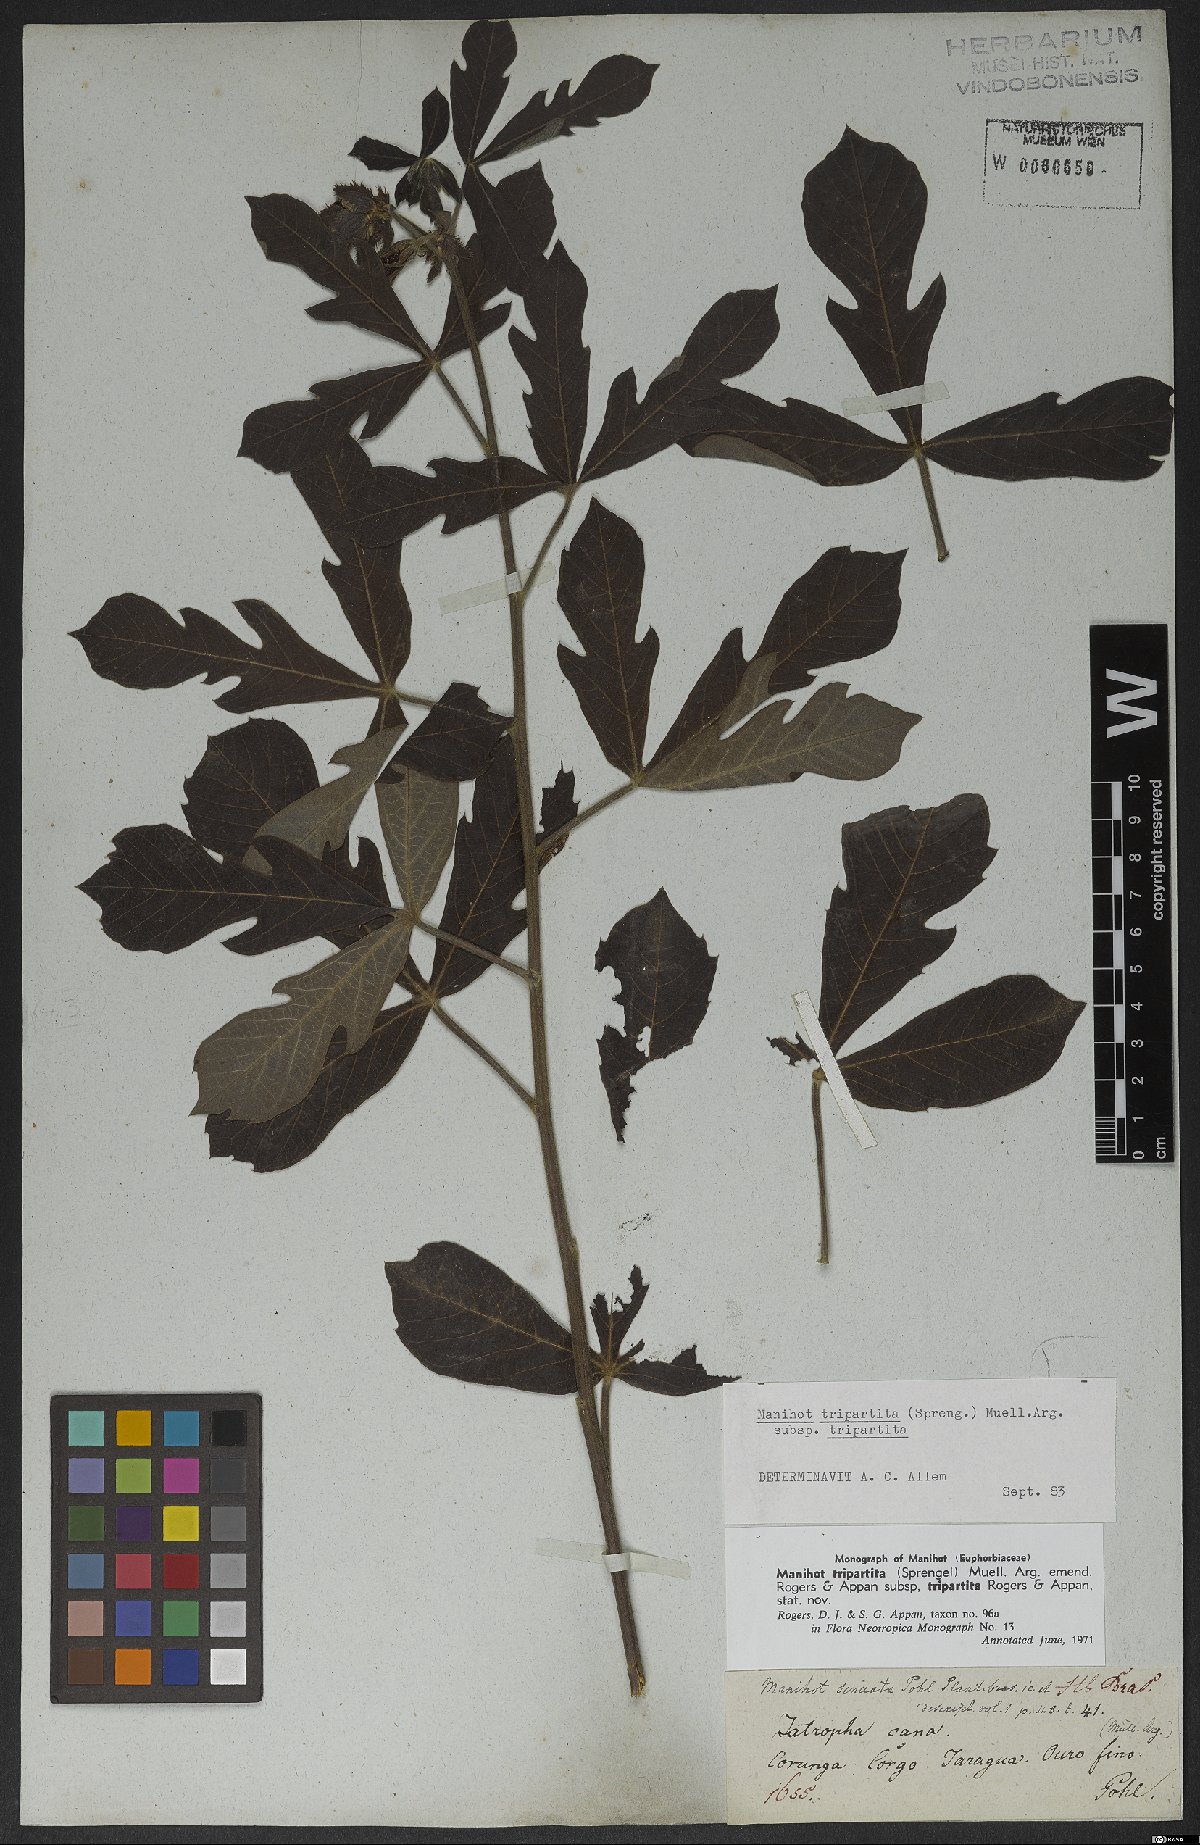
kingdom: Plantae
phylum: Tracheophyta
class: Magnoliopsida
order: Malpighiales
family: Euphorbiaceae
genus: Manihot
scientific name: Manihot tripartita
